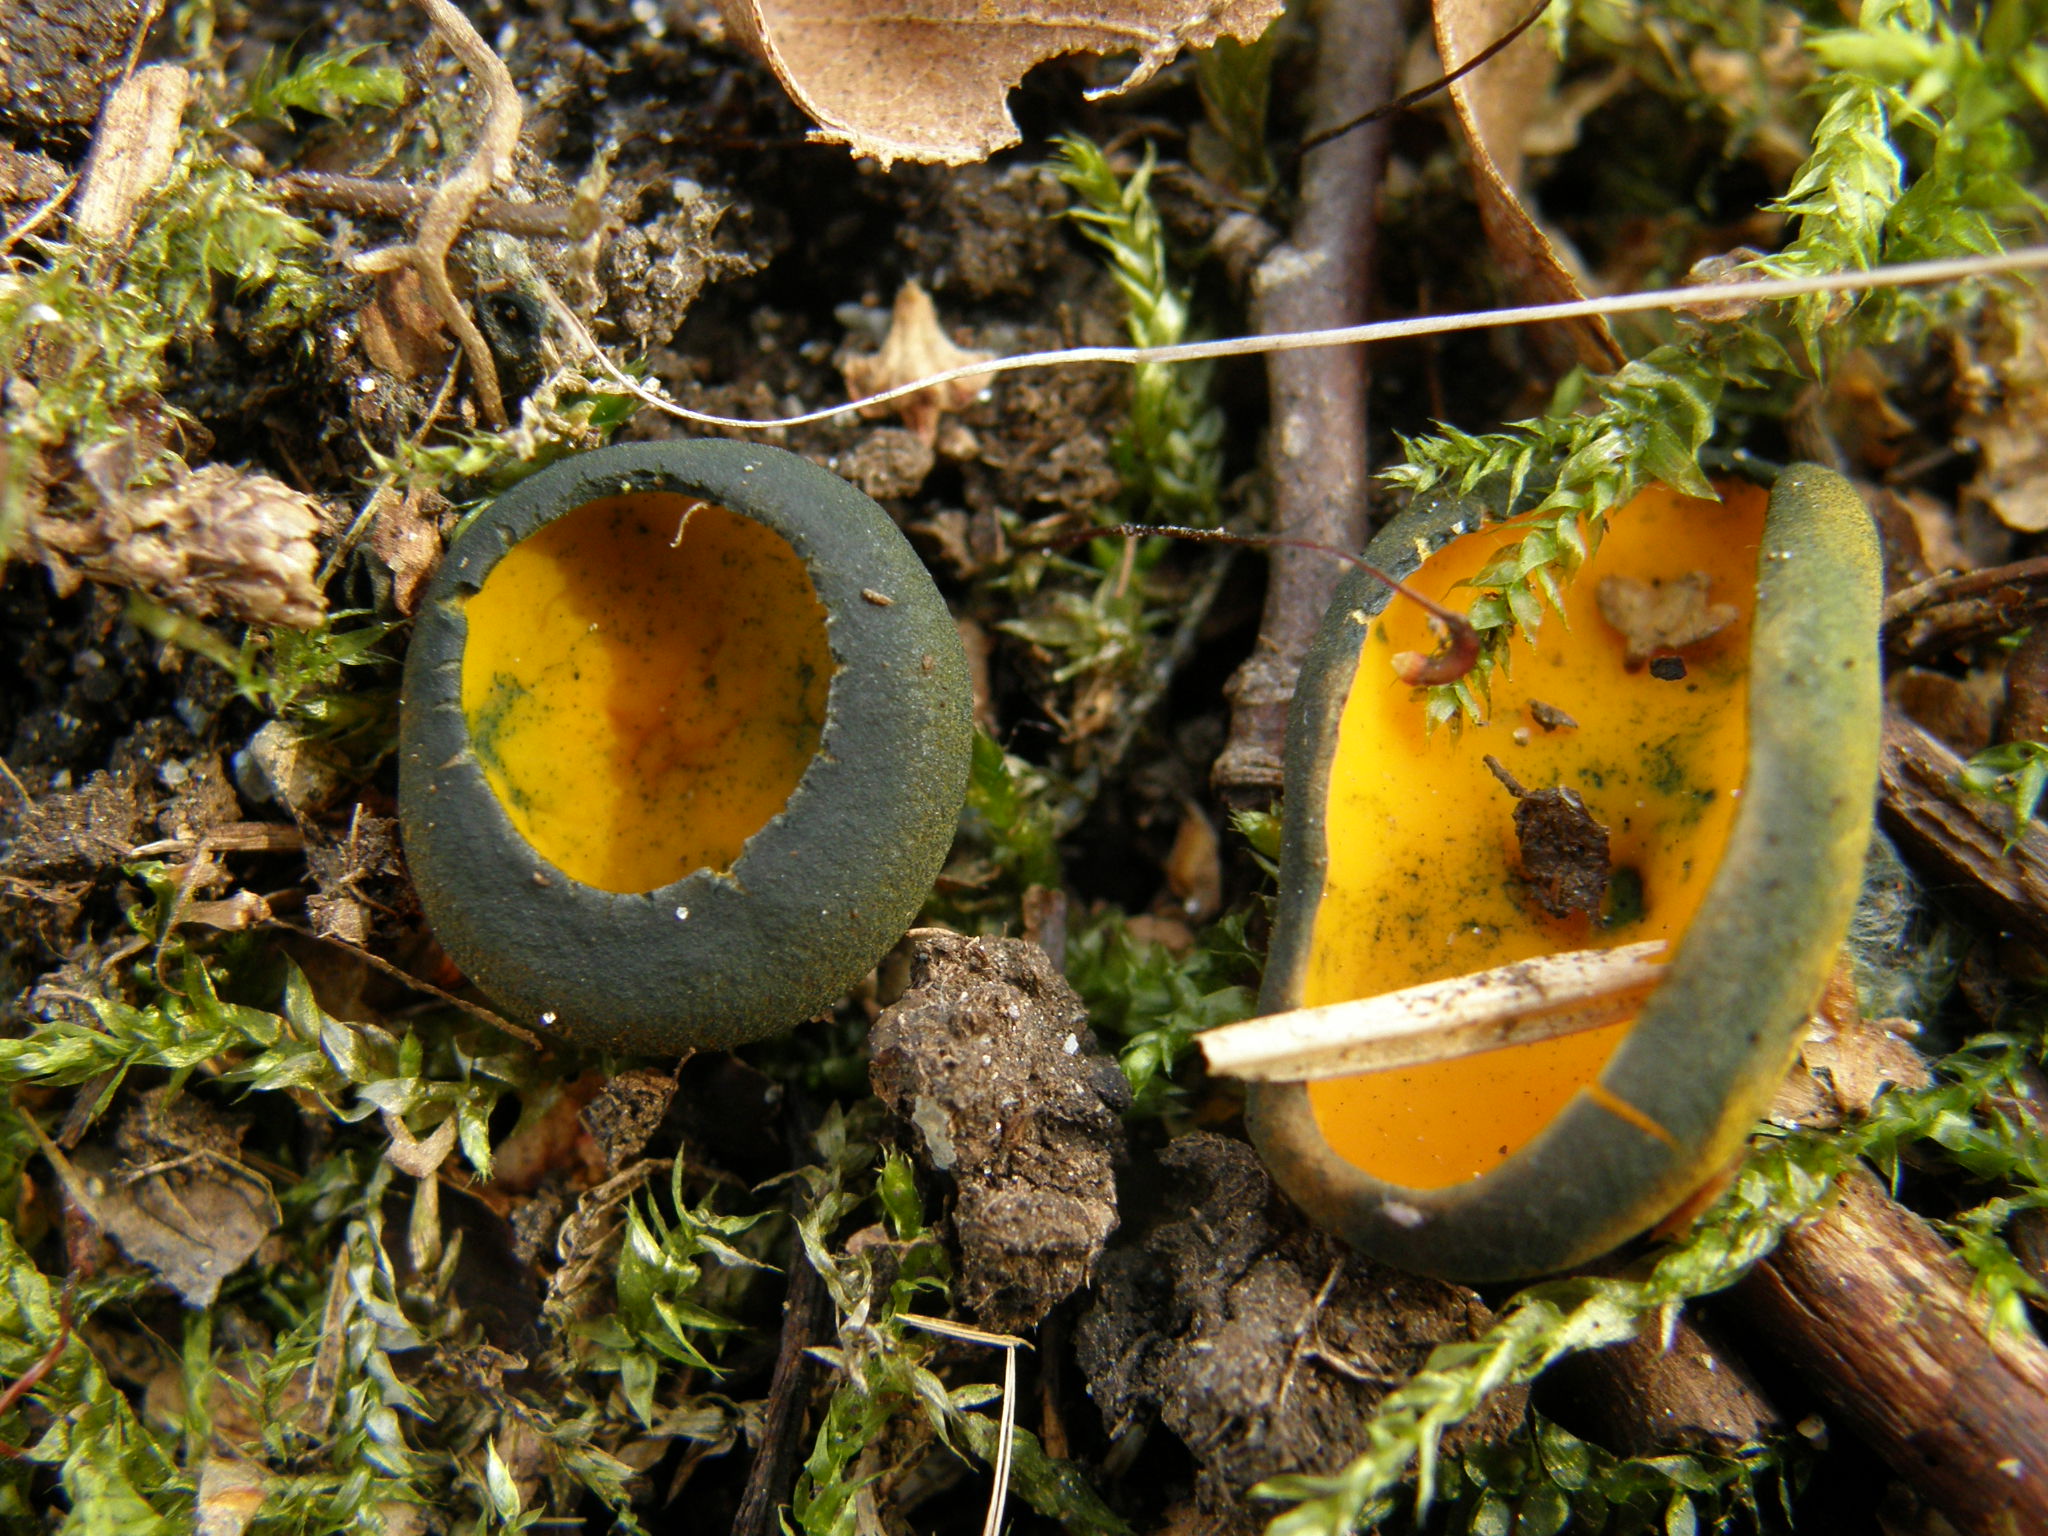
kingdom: Fungi
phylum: Ascomycota
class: Pezizomycetes
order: Pezizales
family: Caloscyphaceae
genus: Caloscypha
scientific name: Caloscypha fulgens
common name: Golden cup
